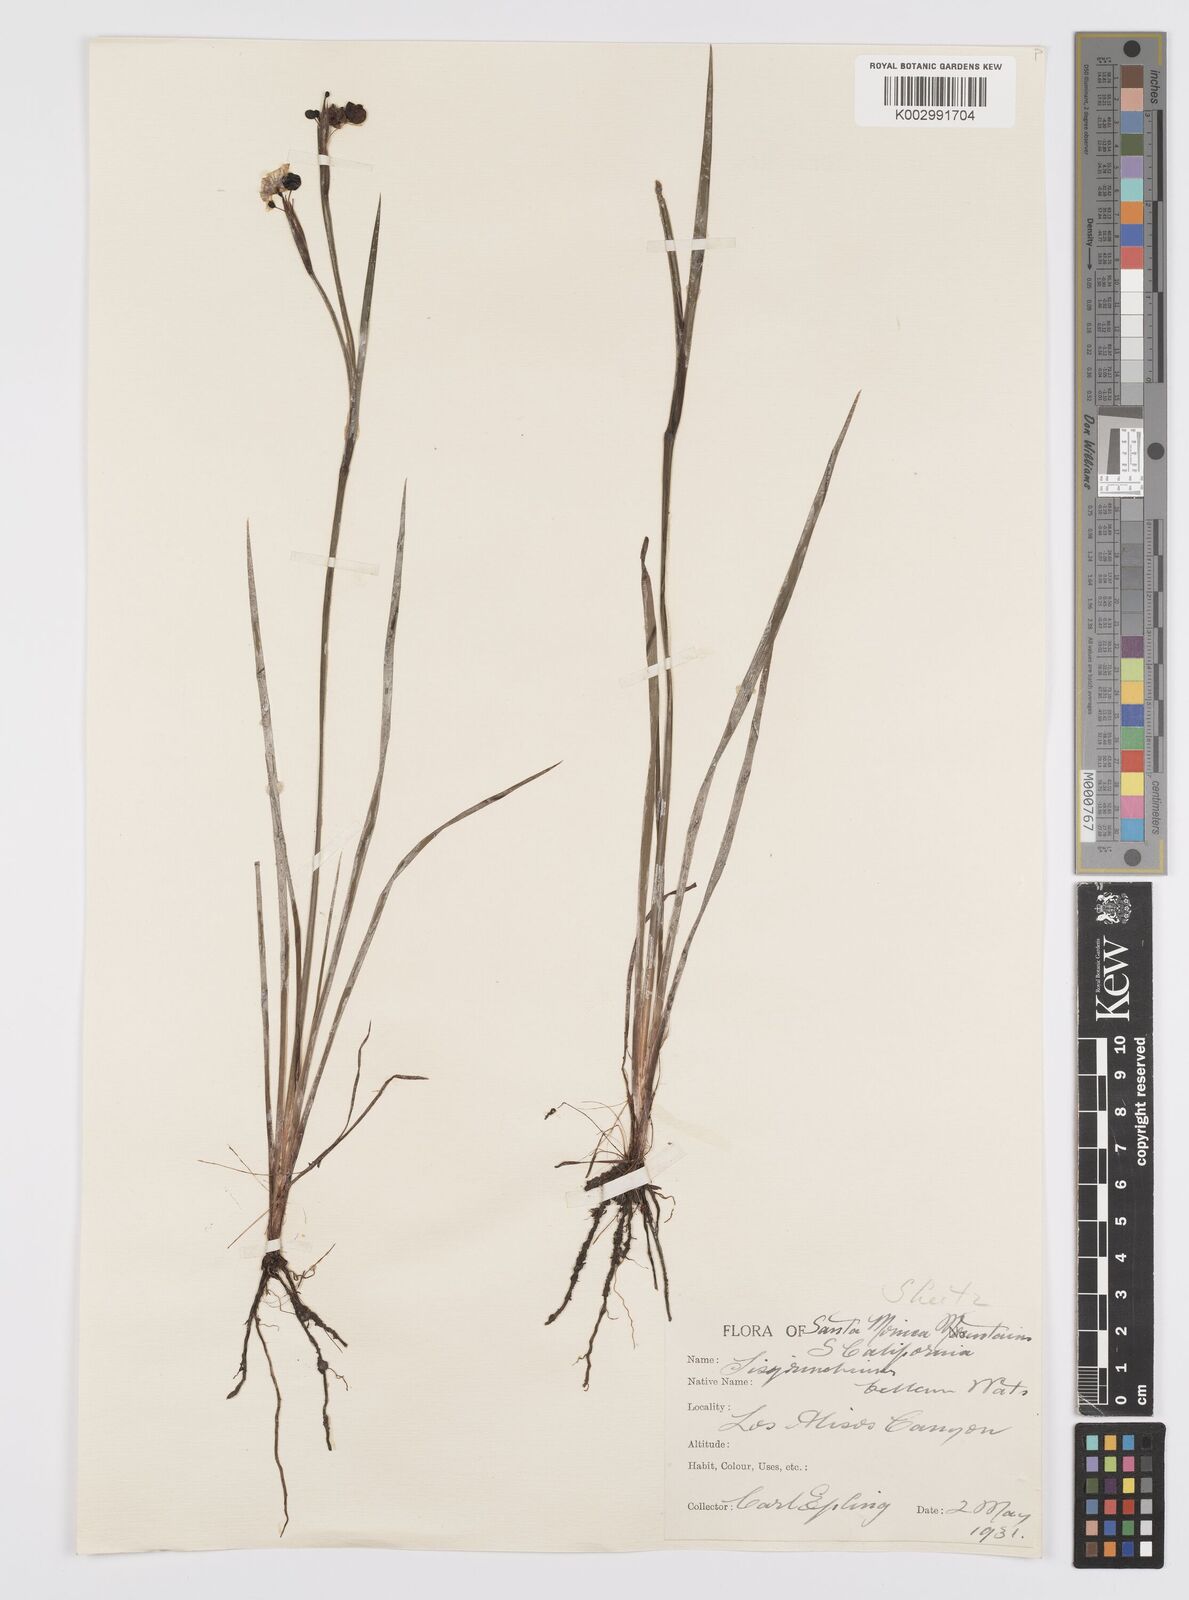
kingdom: Plantae
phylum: Tracheophyta
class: Liliopsida
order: Asparagales
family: Iridaceae
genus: Sisyrinchium
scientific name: Sisyrinchium bellum
